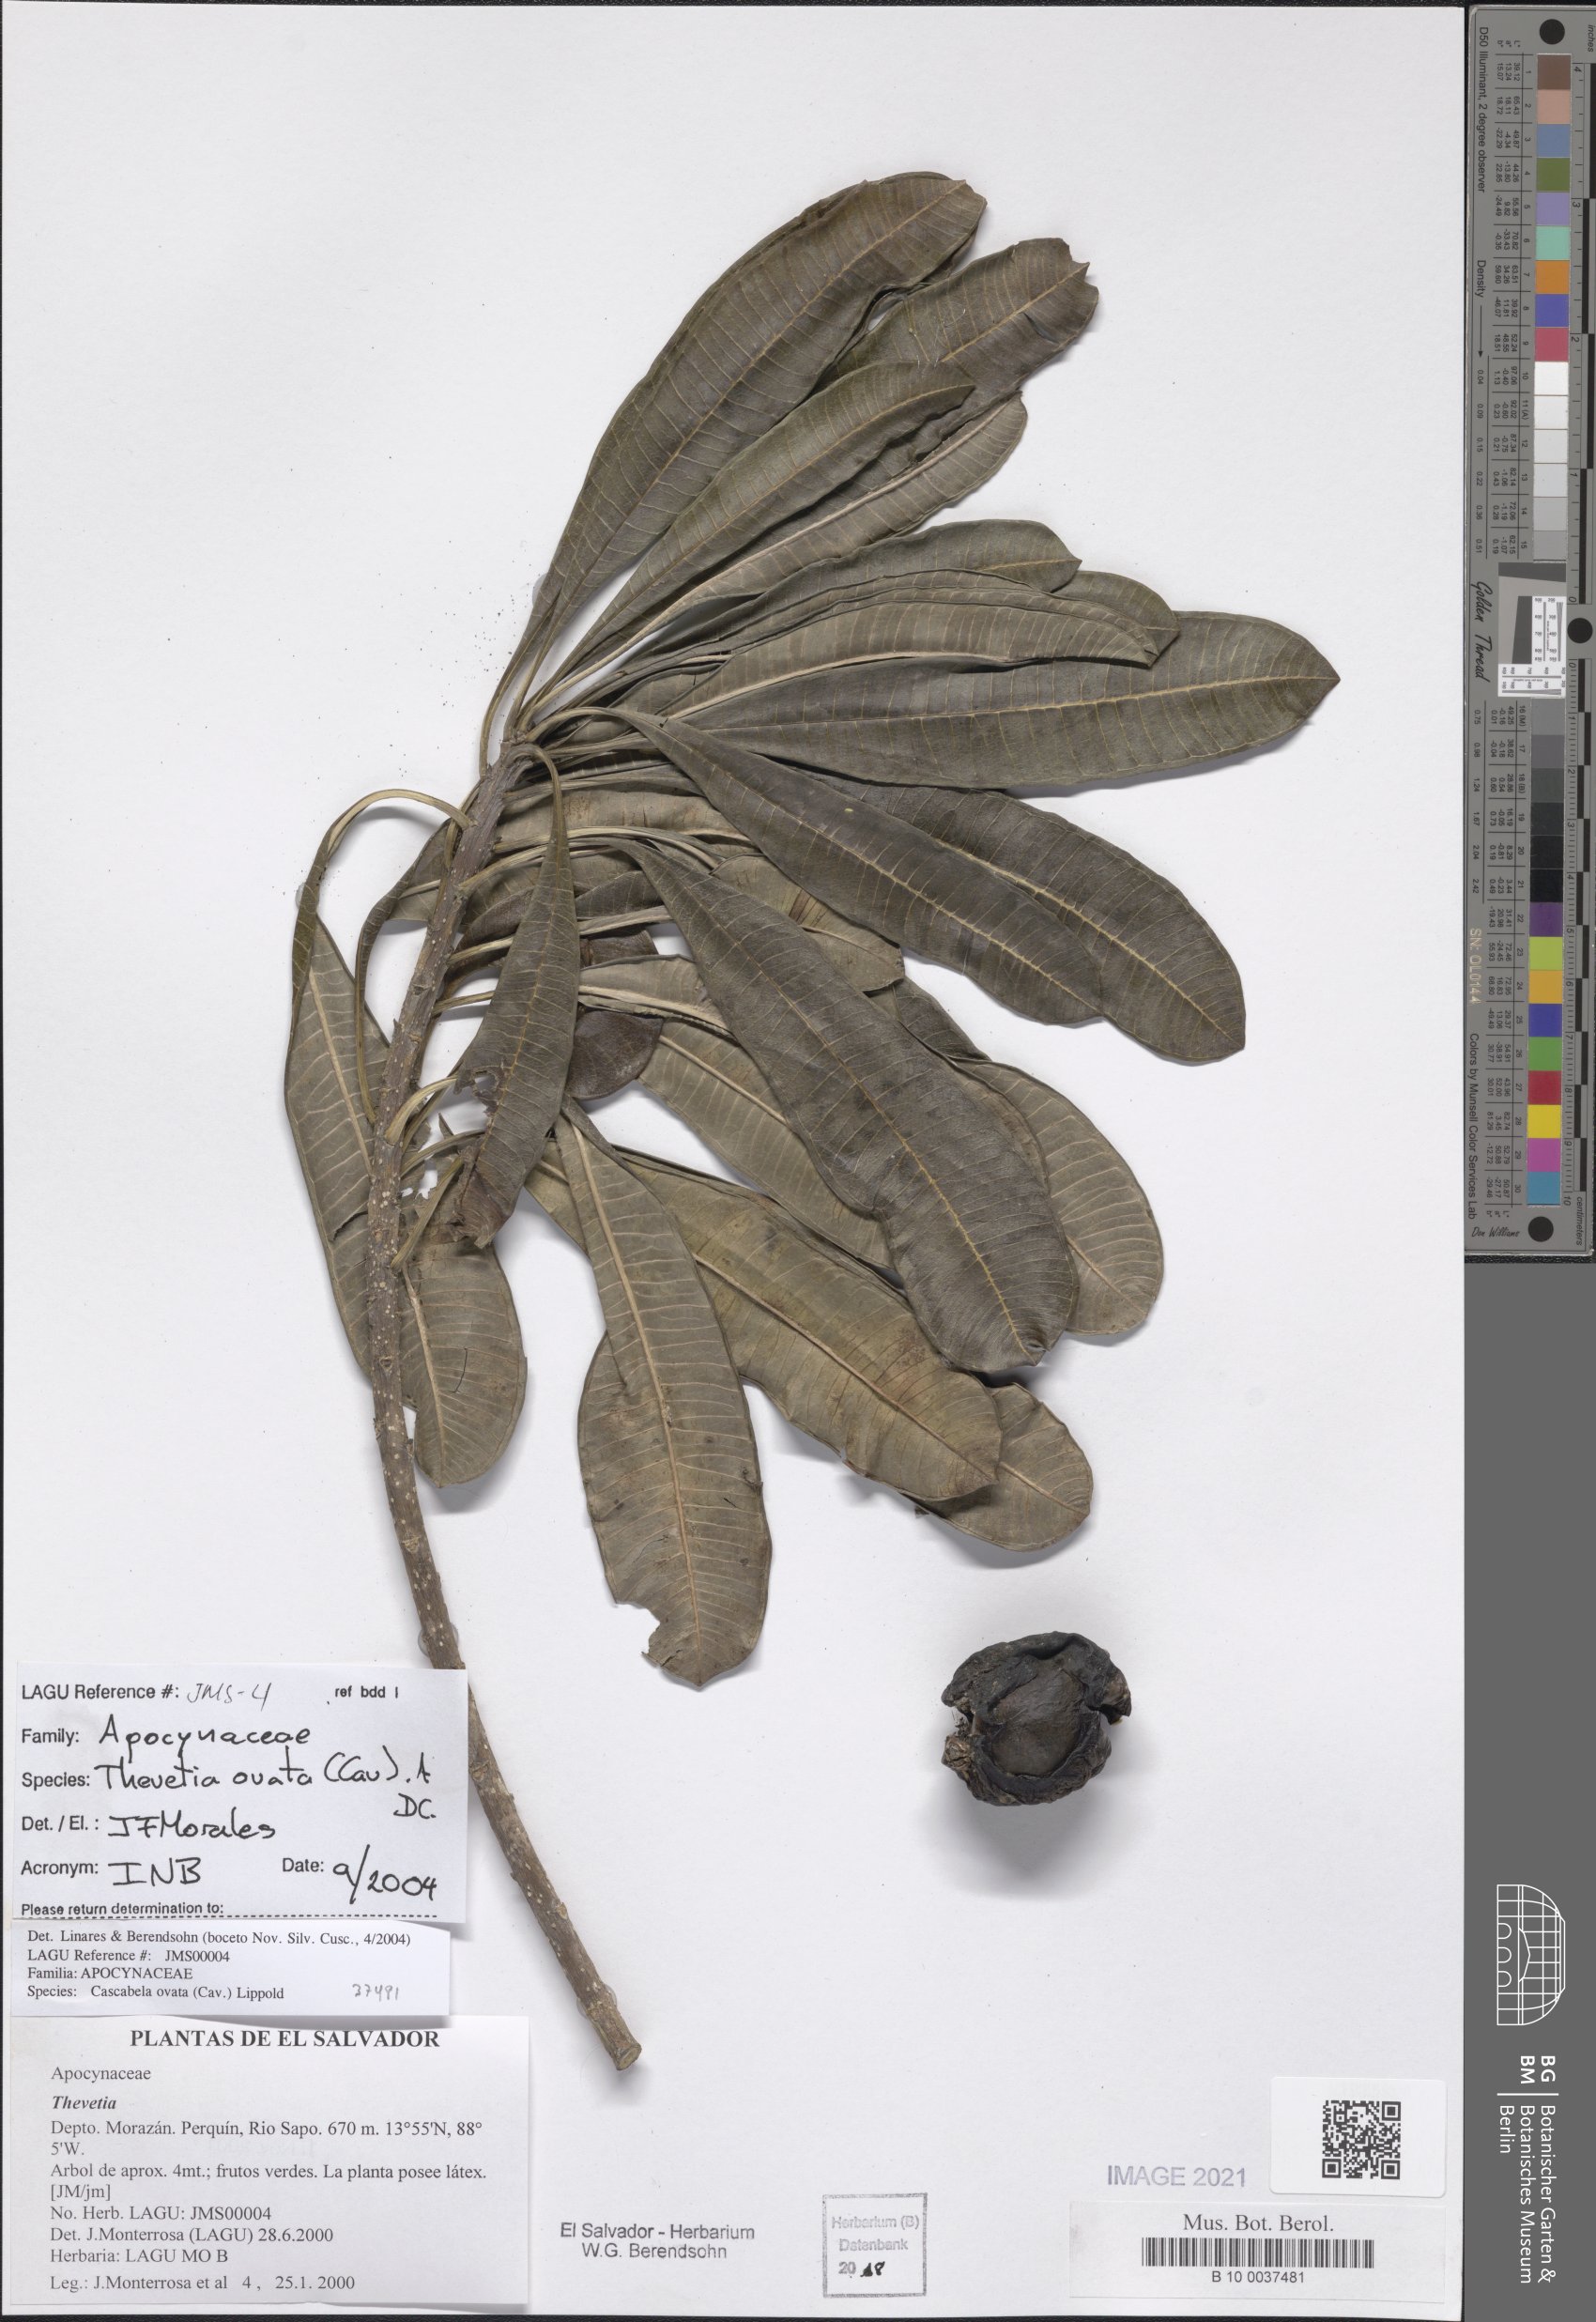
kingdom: Plantae
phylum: Tracheophyta
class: Magnoliopsida
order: Gentianales
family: Apocynaceae
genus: Cascabela
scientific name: Cascabela ovata
